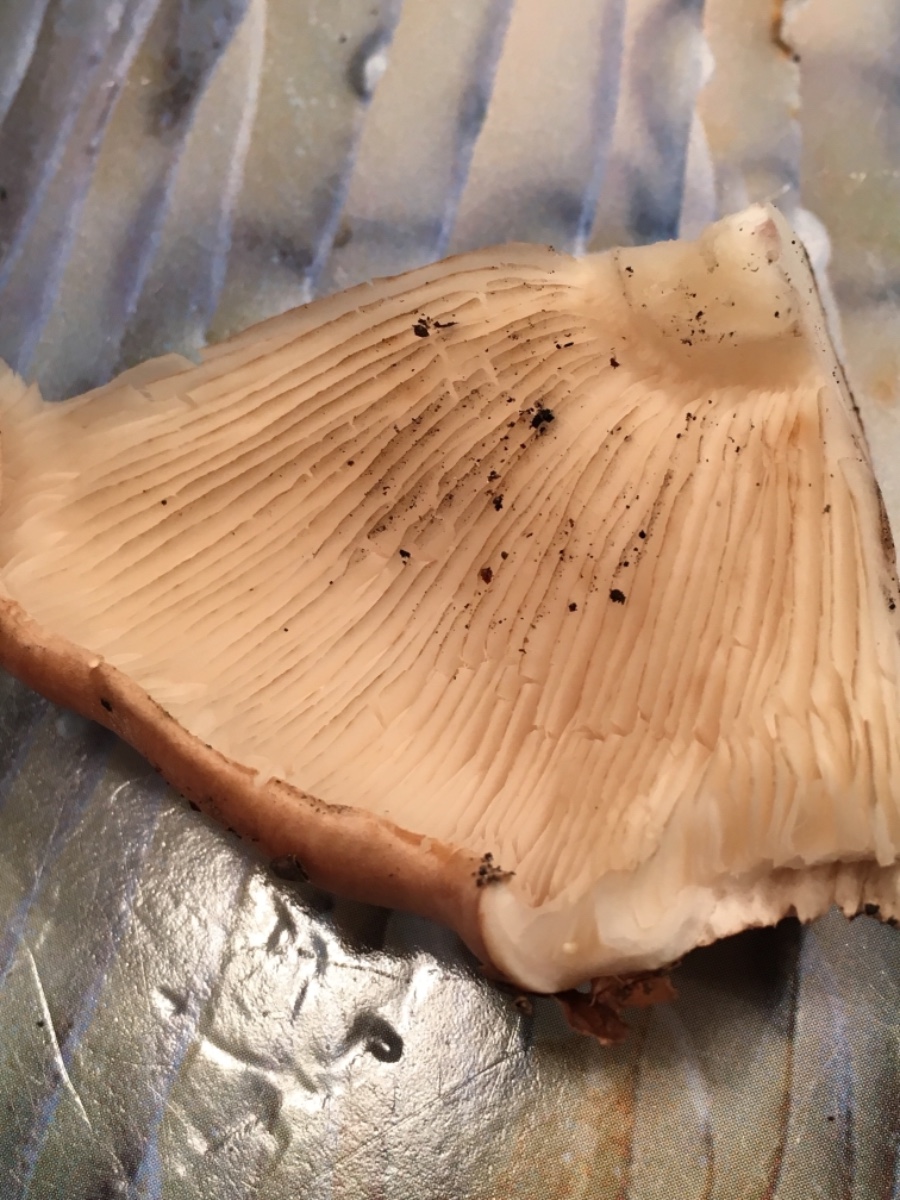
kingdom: Fungi
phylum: Basidiomycota
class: Agaricomycetes
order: Agaricales
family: Tricholomataceae
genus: Tricholoma
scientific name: Tricholoma populinum
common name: poppel-ridderhat
